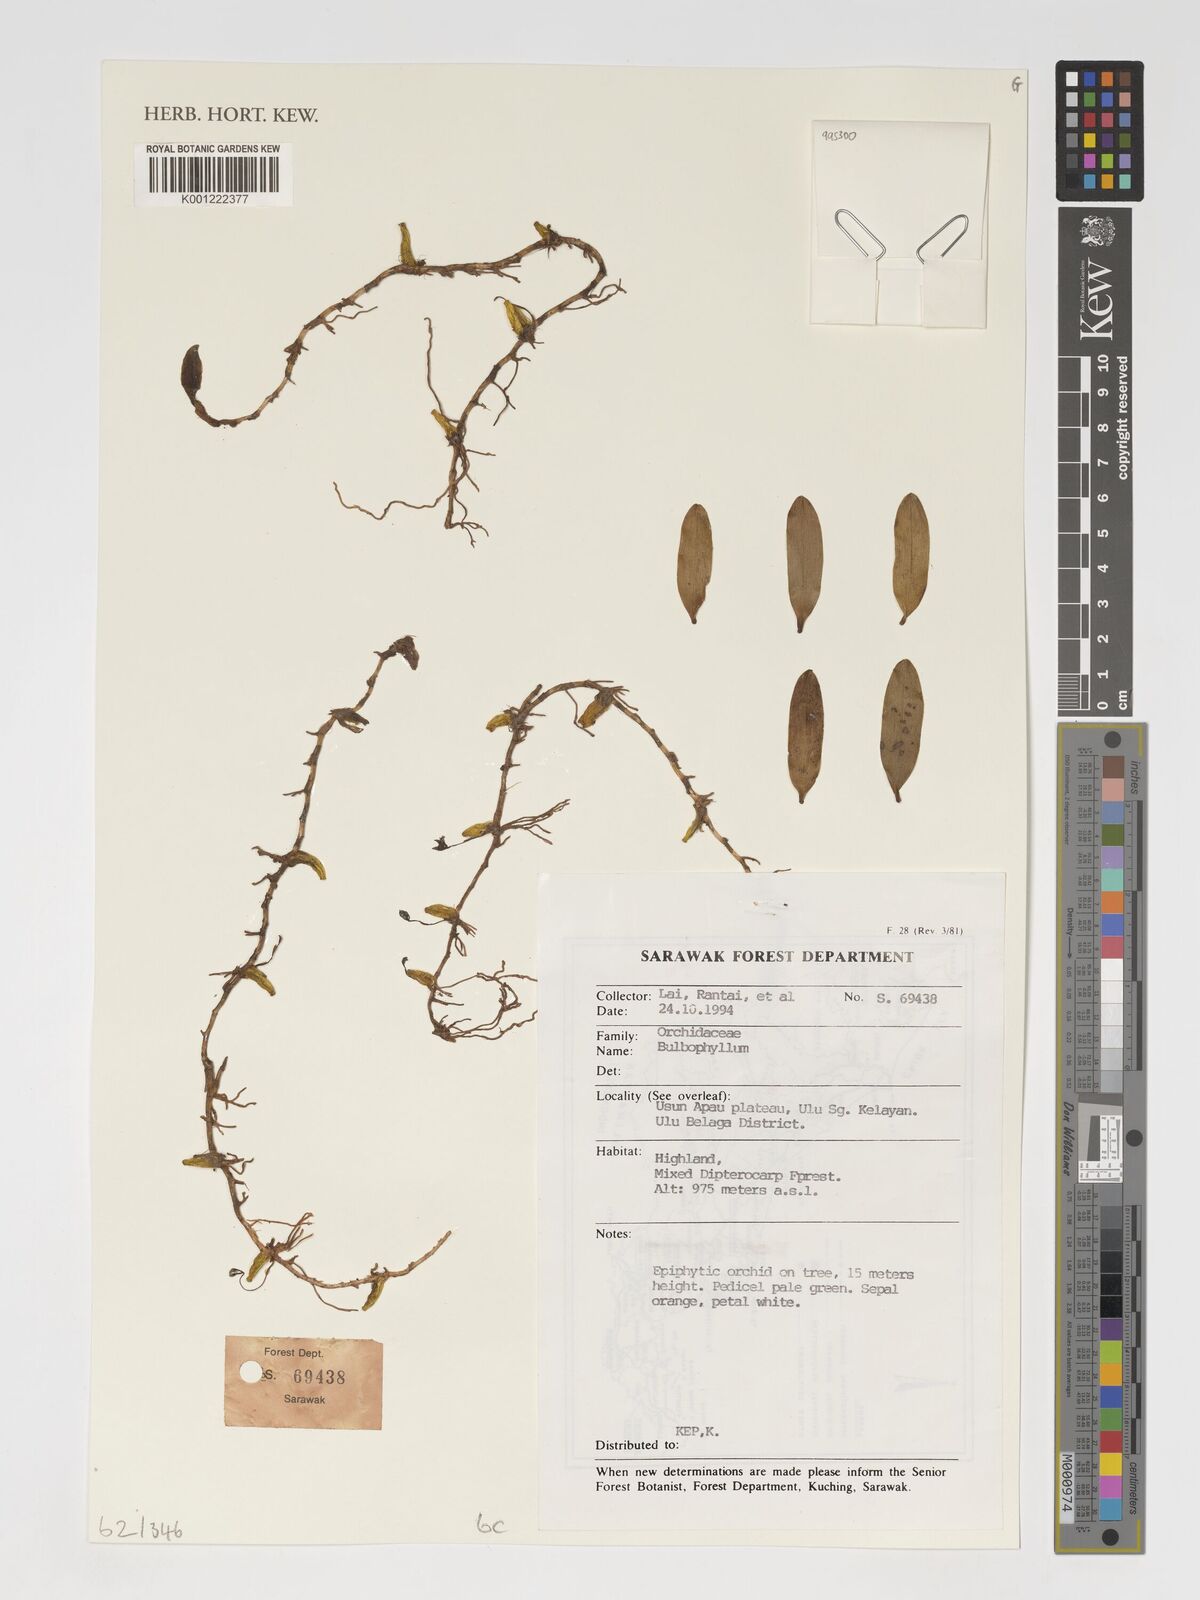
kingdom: Plantae
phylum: Tracheophyta
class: Liliopsida
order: Asparagales
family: Orchidaceae
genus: Bulbophyllum
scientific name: Bulbophyllum
